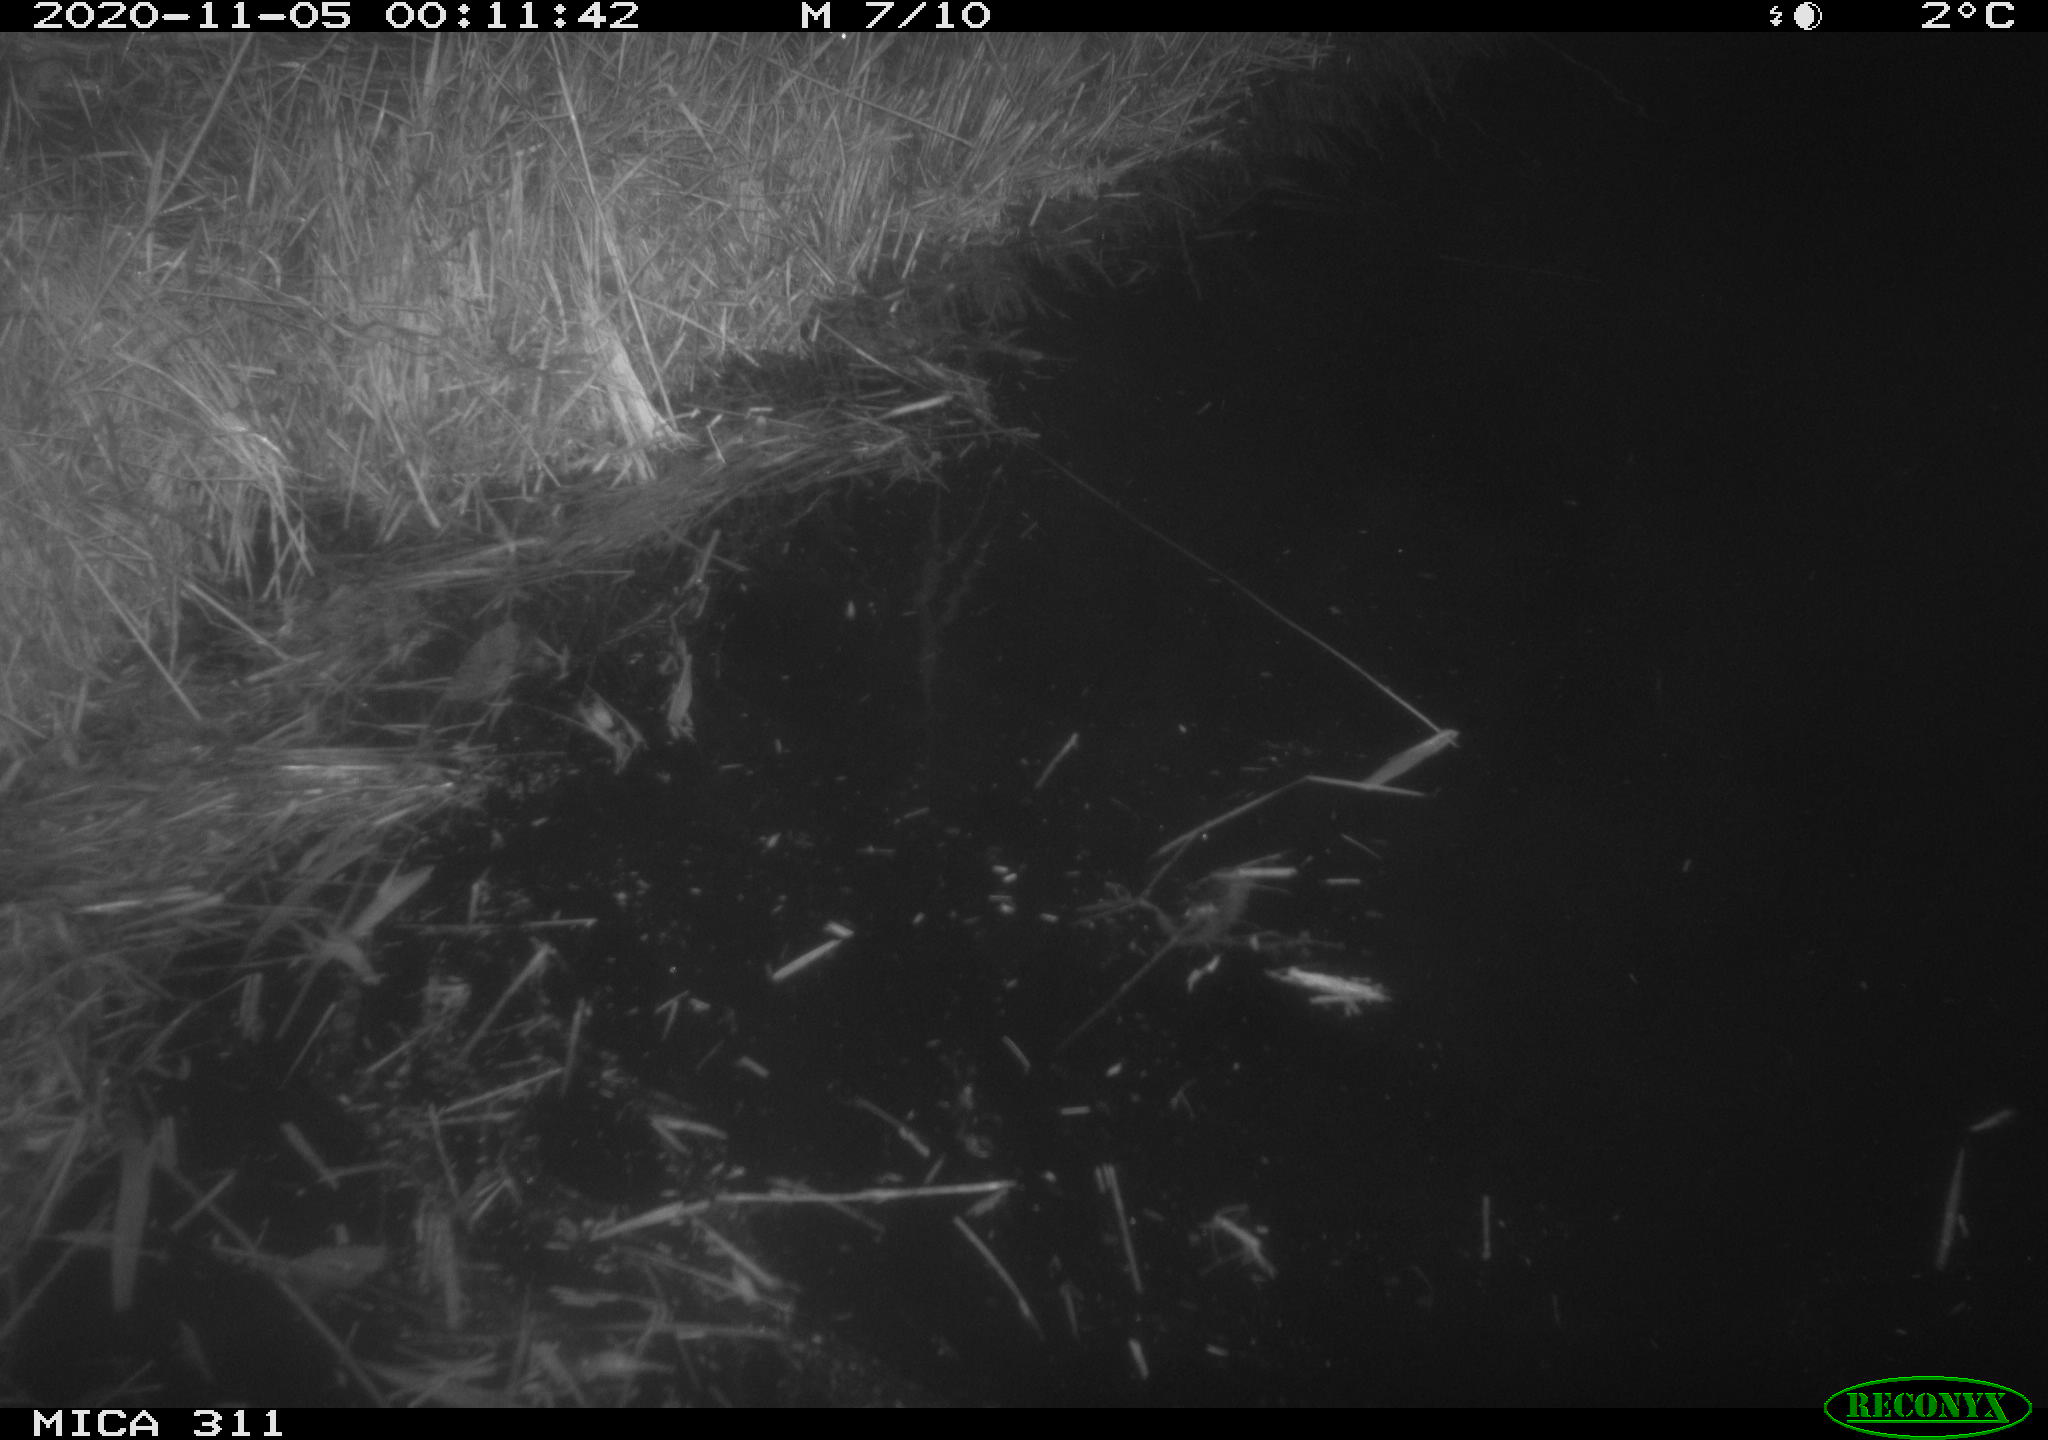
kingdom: Animalia
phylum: Chordata
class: Mammalia
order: Rodentia
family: Muridae
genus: Rattus
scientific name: Rattus norvegicus
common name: Brown rat
